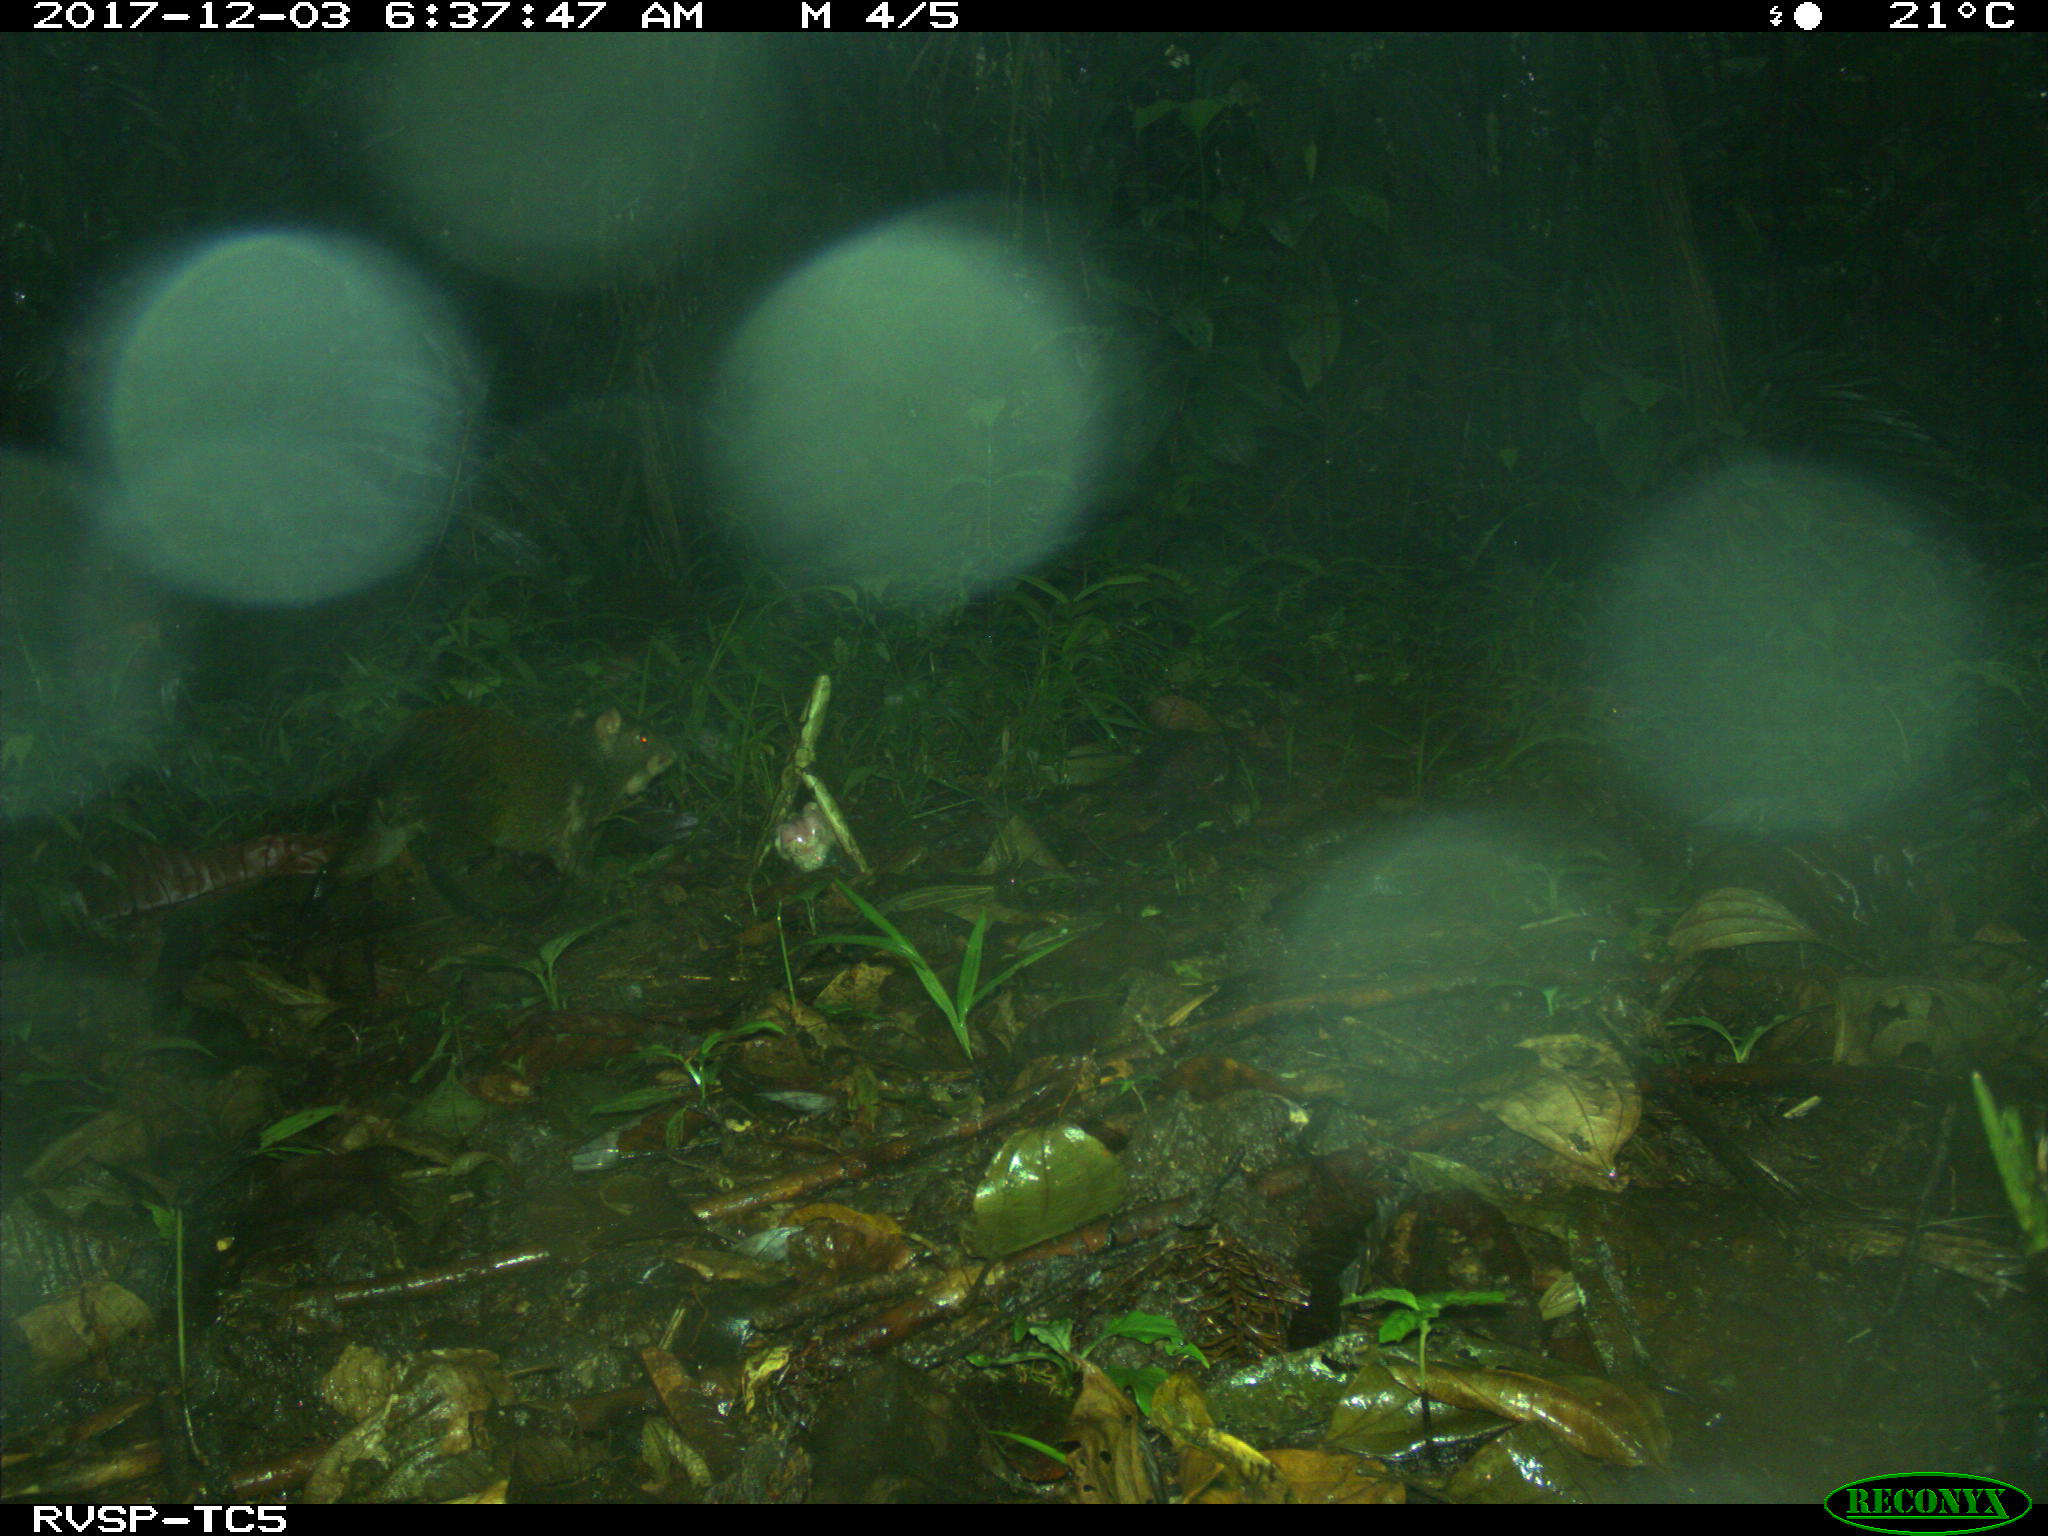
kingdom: Animalia
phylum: Chordata
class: Mammalia
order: Rodentia
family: Dasyproctidae
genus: Dasyprocta
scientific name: Dasyprocta punctata
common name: Central american agouti
